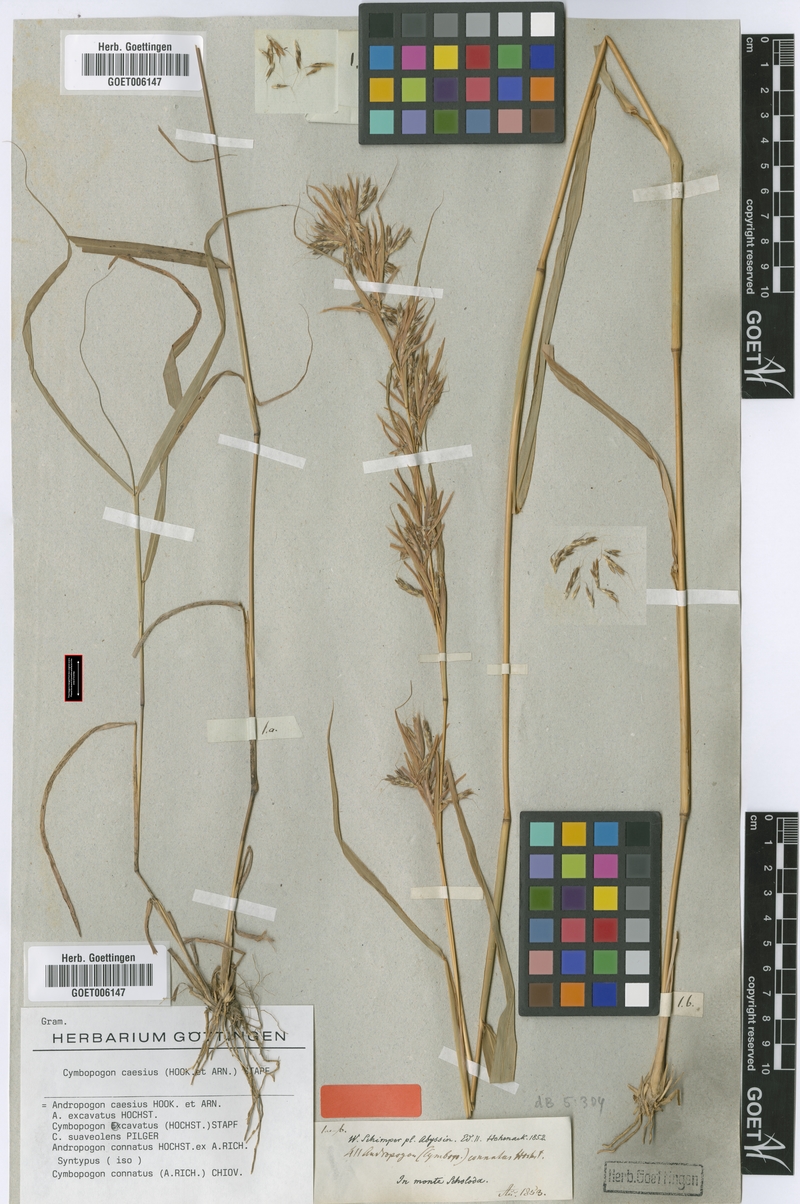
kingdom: Plantae
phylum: Tracheophyta
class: Liliopsida
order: Poales
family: Poaceae
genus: Cymbopogon
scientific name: Cymbopogon caesius
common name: Kachi grass
